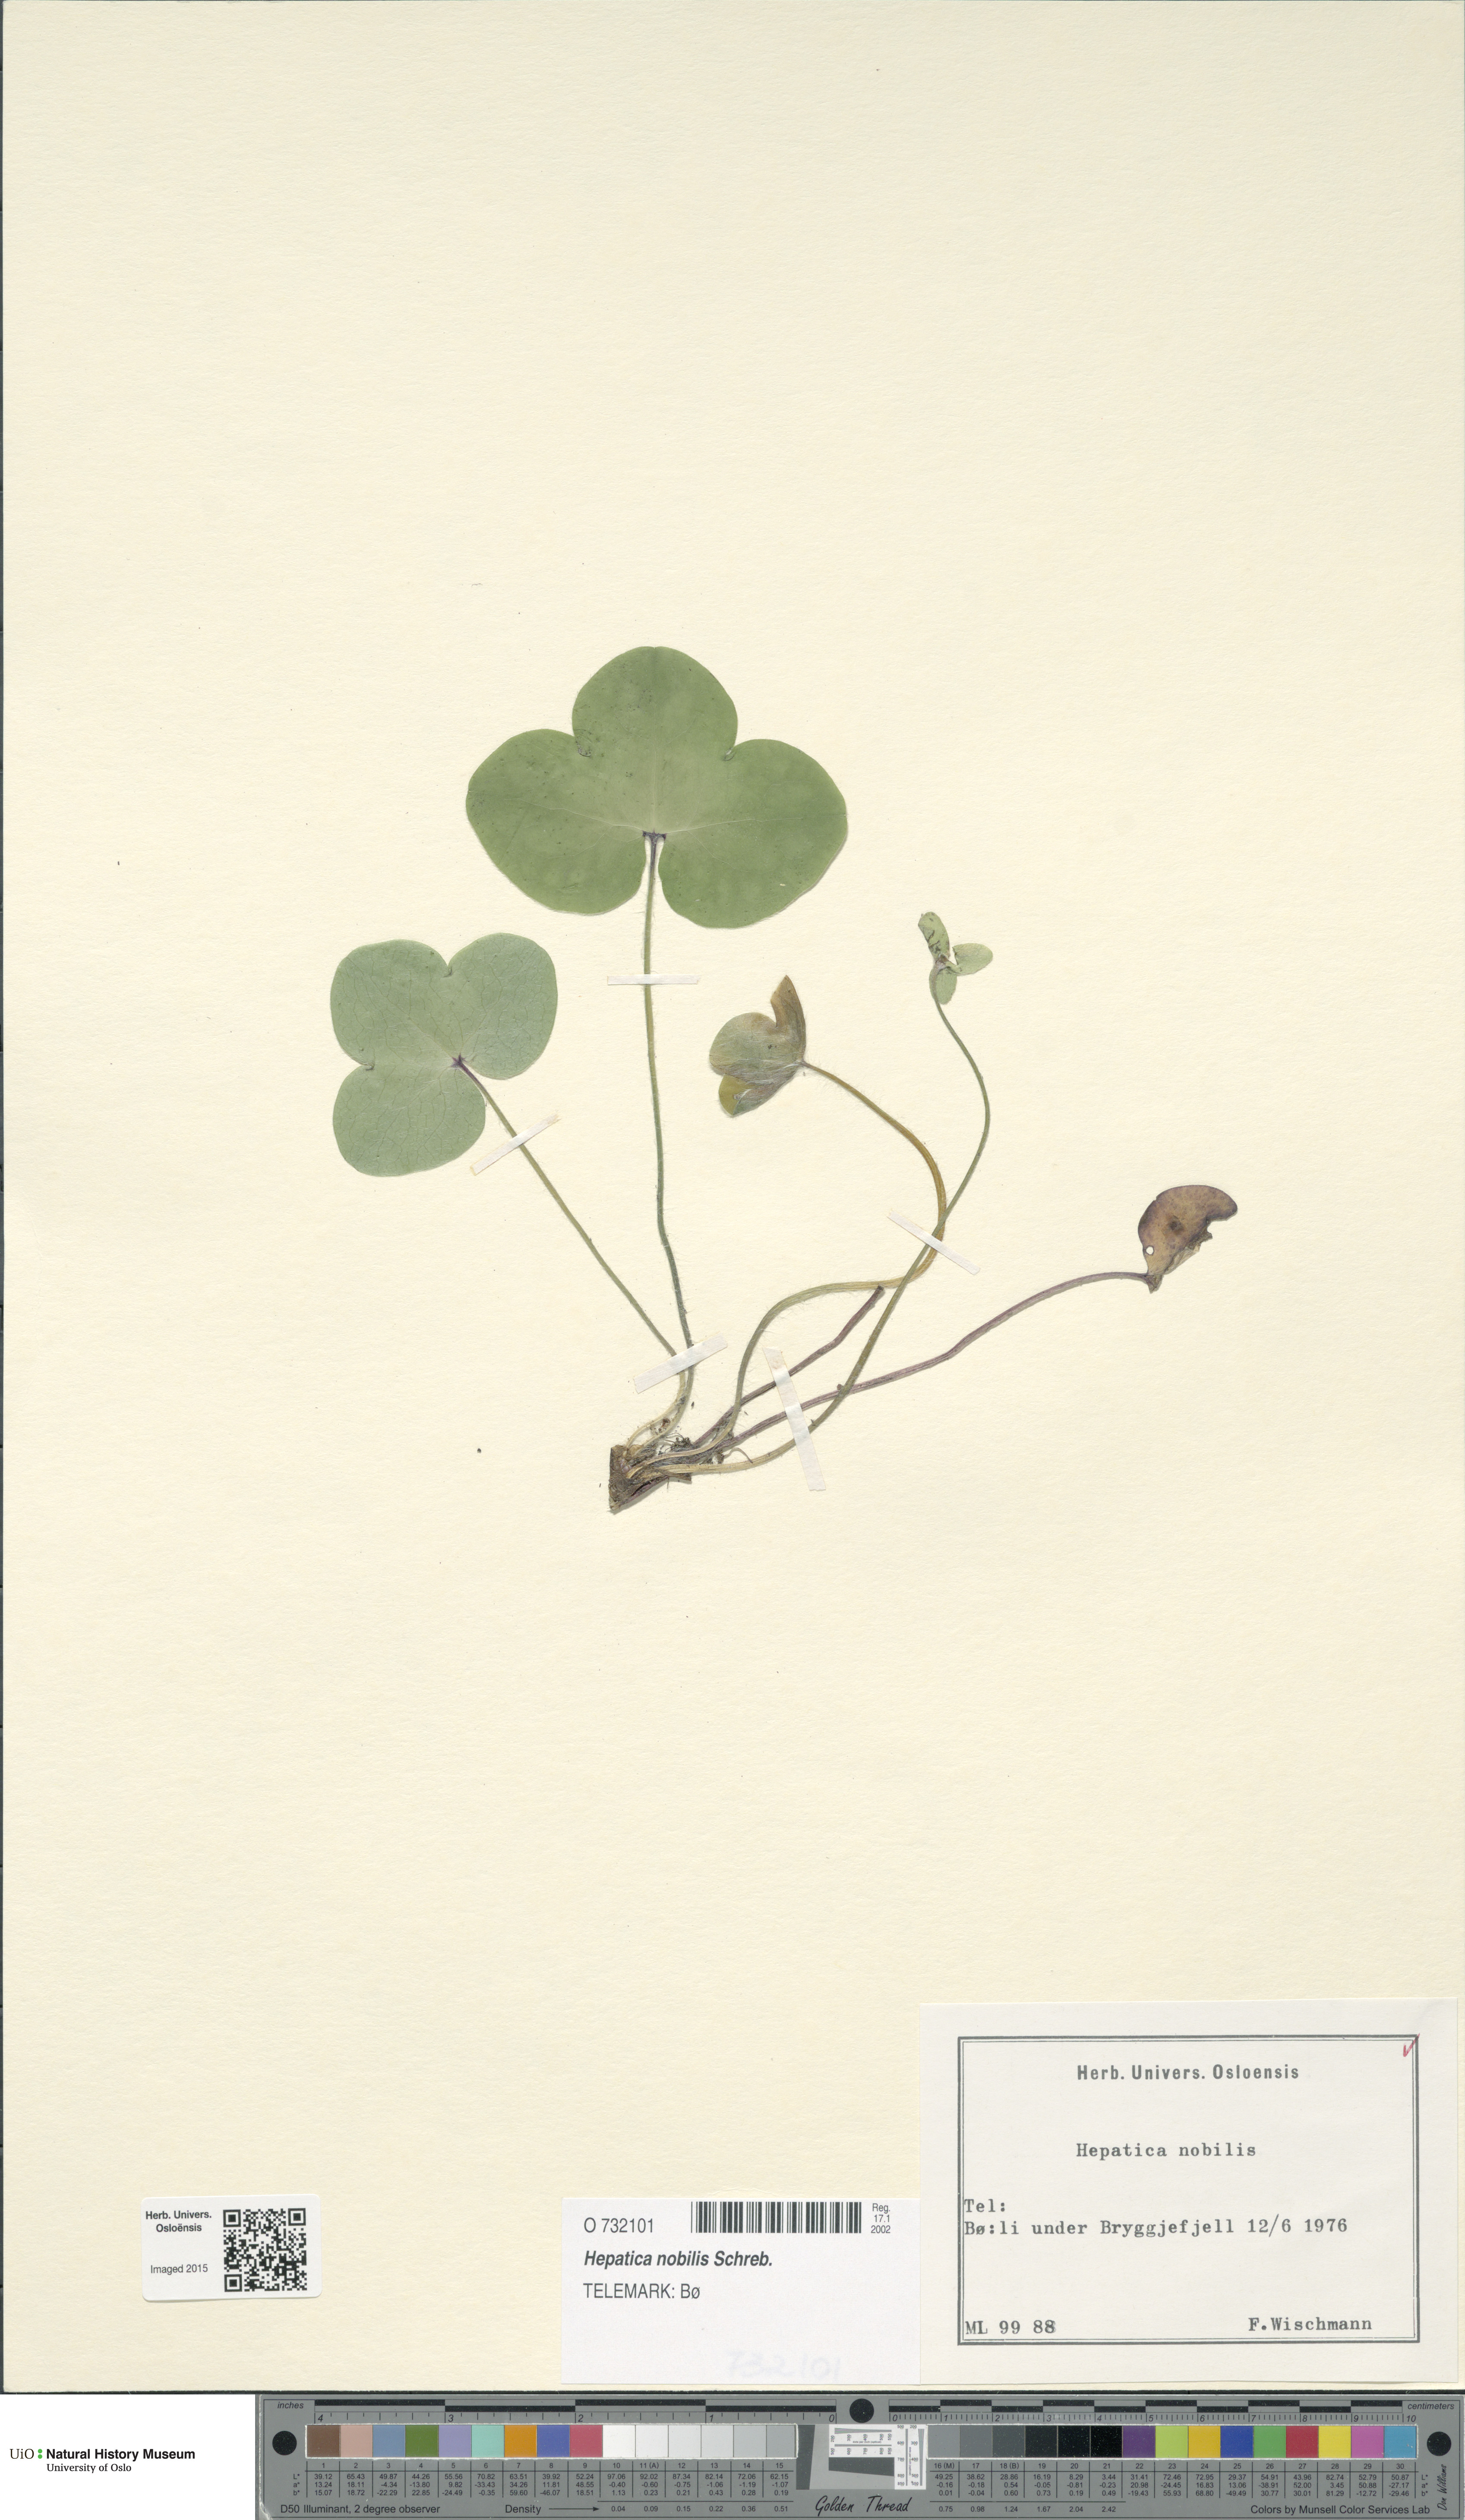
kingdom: Plantae
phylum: Tracheophyta
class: Magnoliopsida
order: Ranunculales
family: Ranunculaceae
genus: Hepatica
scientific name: Hepatica nobilis
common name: Liverleaf
